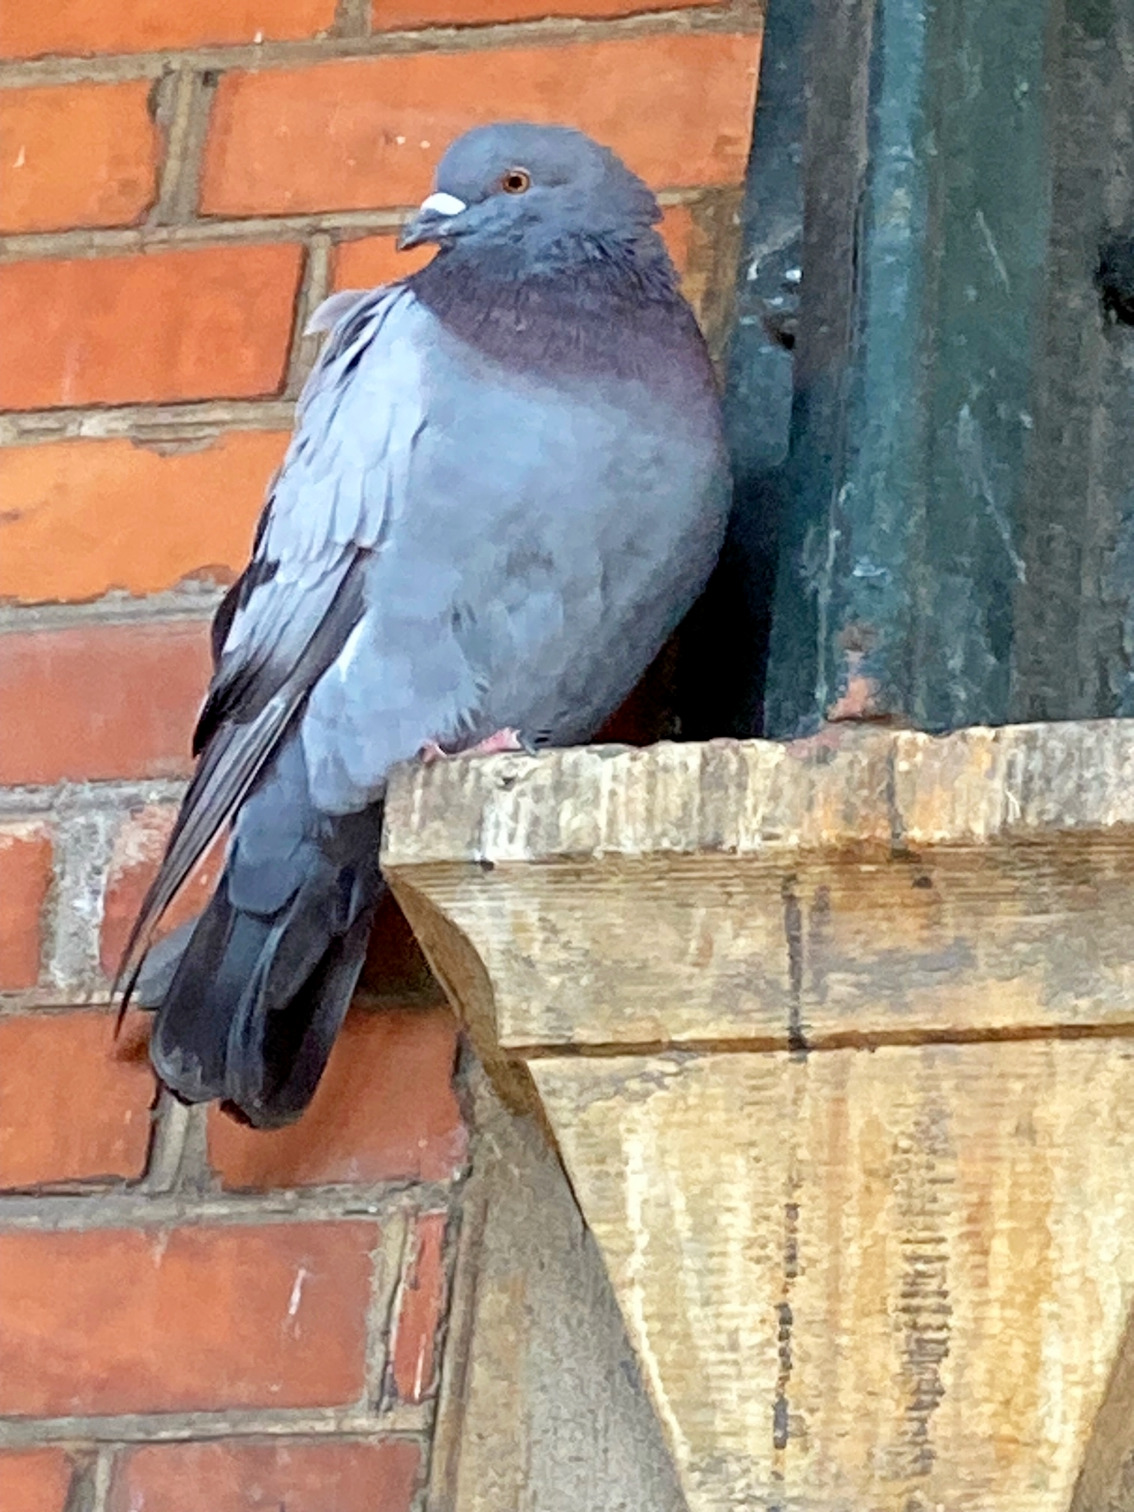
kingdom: Animalia
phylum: Chordata
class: Aves
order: Columbiformes
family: Columbidae
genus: Columba
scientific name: Columba livia
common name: Tamdue
